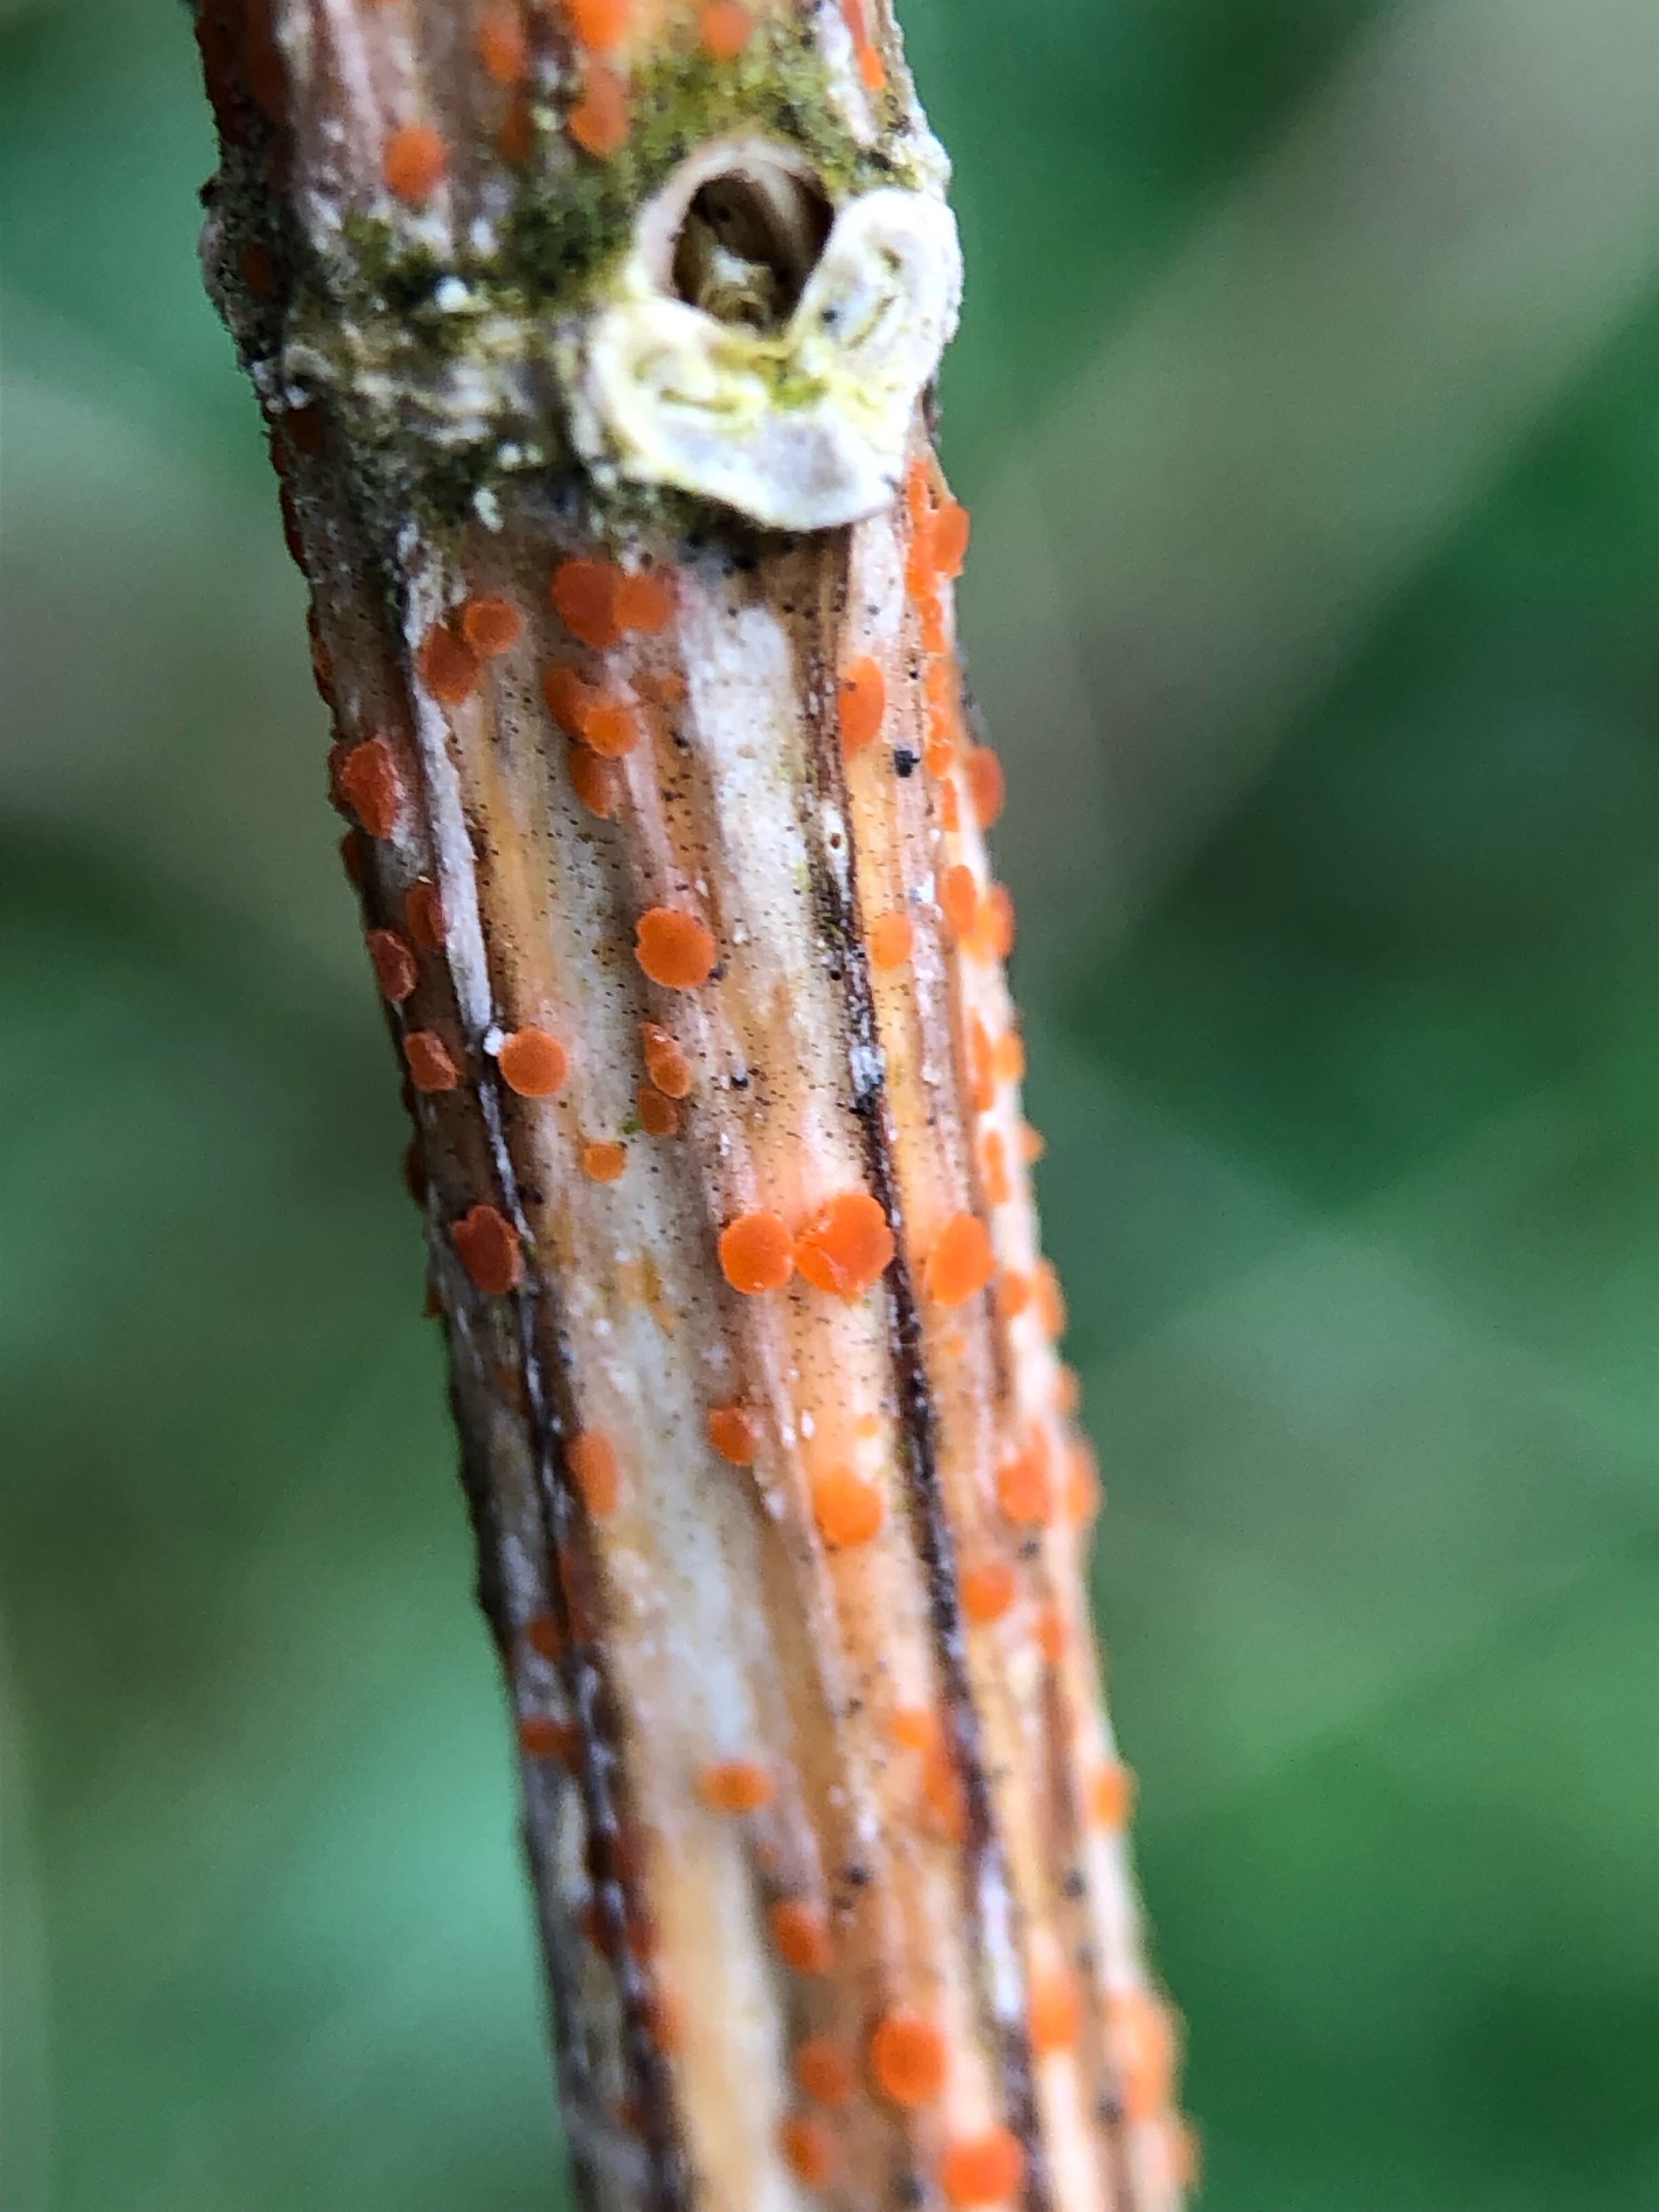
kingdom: Fungi
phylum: Ascomycota
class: Leotiomycetes
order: Helotiales
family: Calloriaceae
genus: Calloria
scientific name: Calloria urticae
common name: nælde-orangeskive
